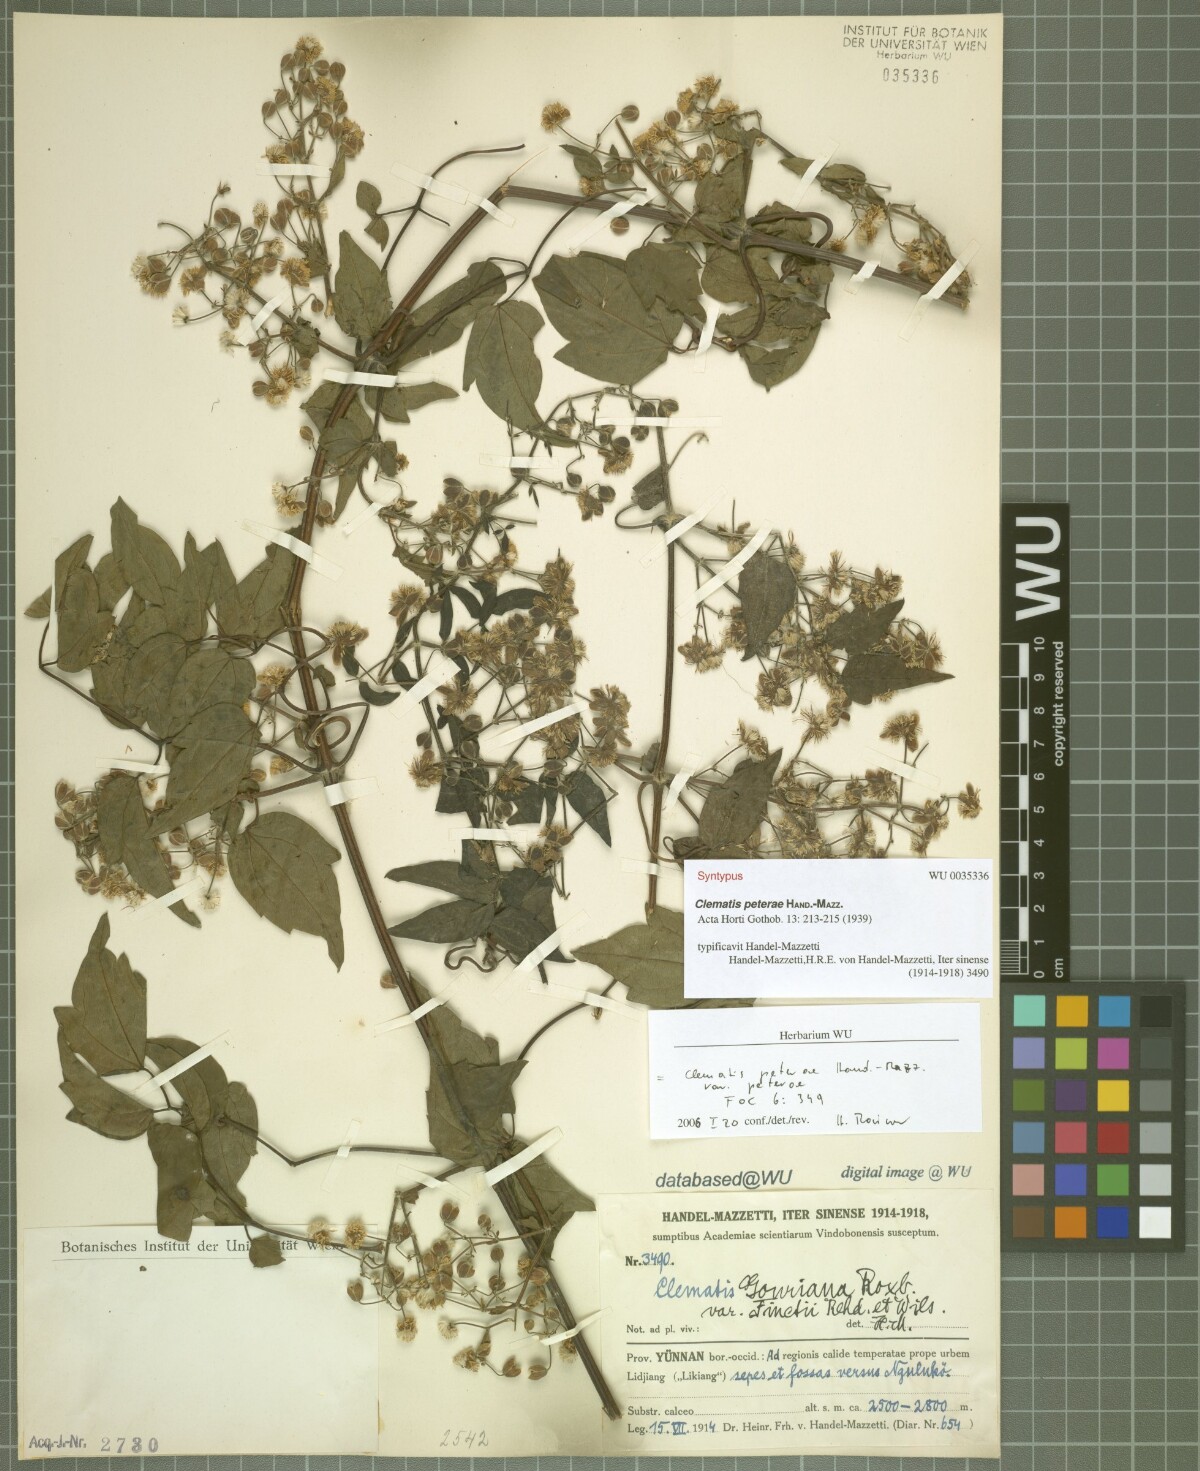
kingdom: Plantae
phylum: Tracheophyta
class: Magnoliopsida
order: Ranunculales
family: Ranunculaceae
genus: Clematis
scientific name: Clematis peterae
